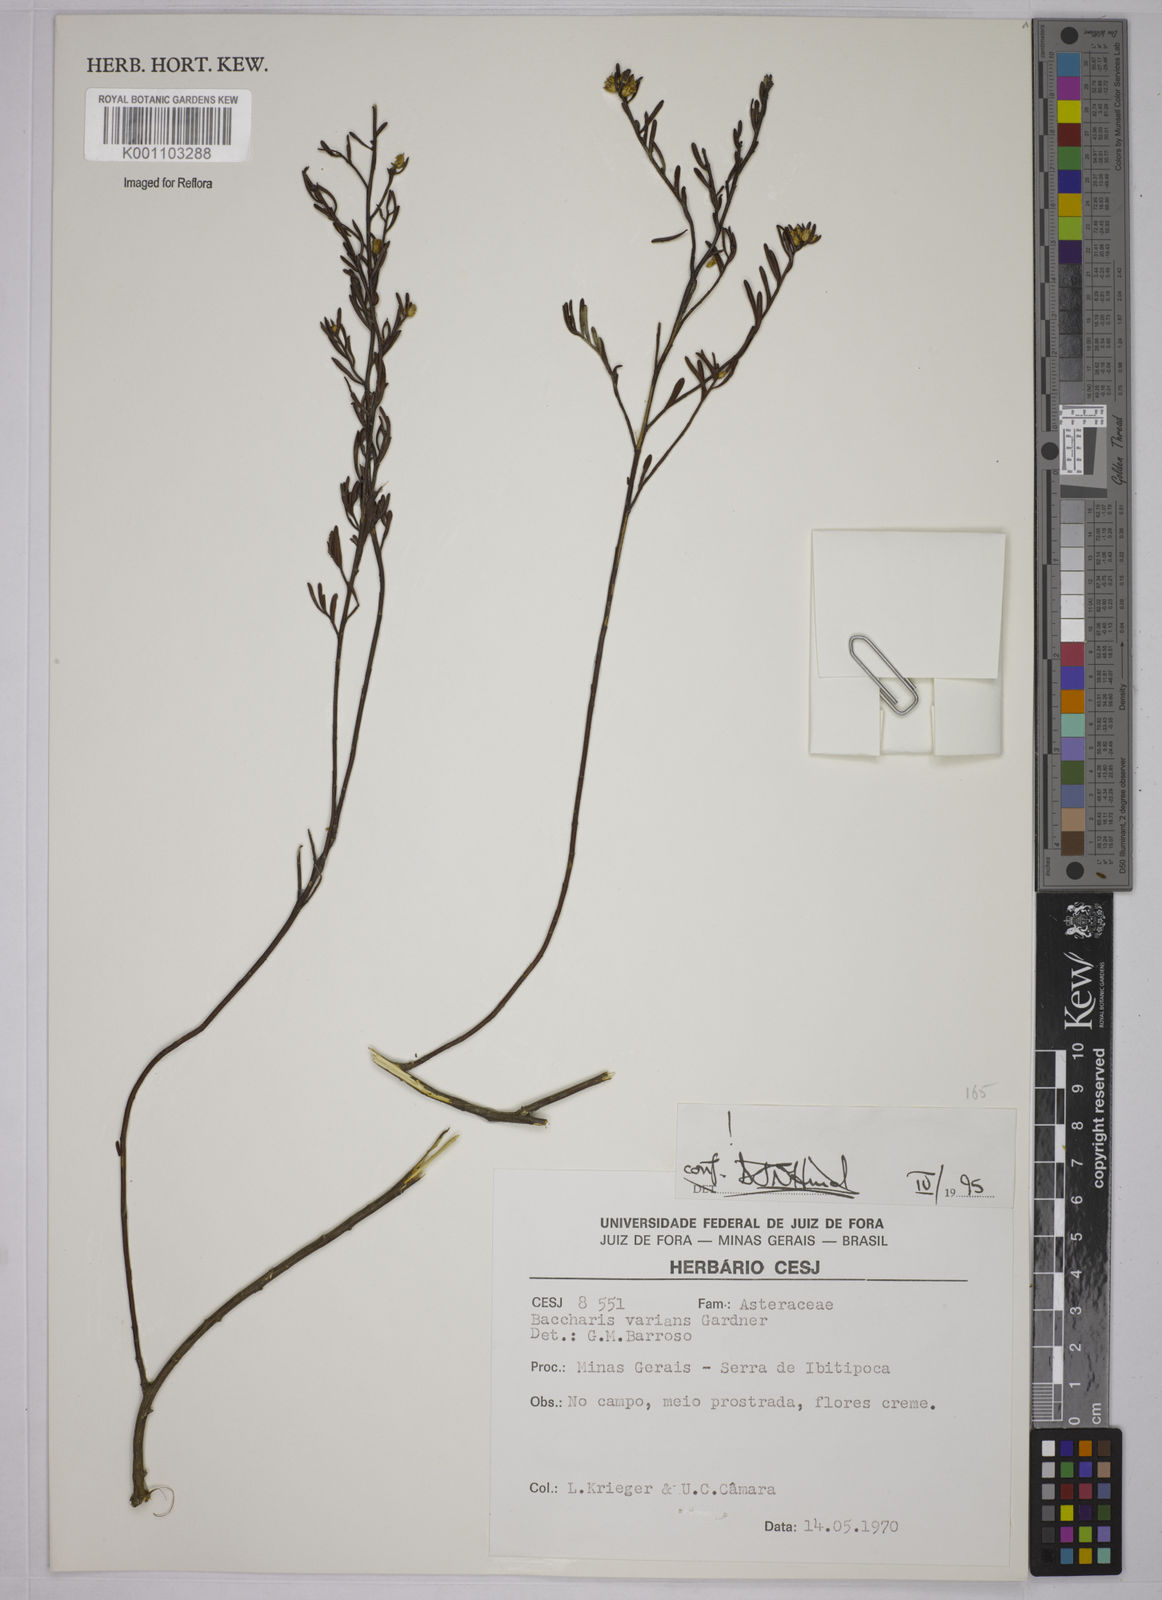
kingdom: Plantae
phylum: Tracheophyta
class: Magnoliopsida
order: Asterales
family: Asteraceae
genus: Baccharis
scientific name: Baccharis varians
